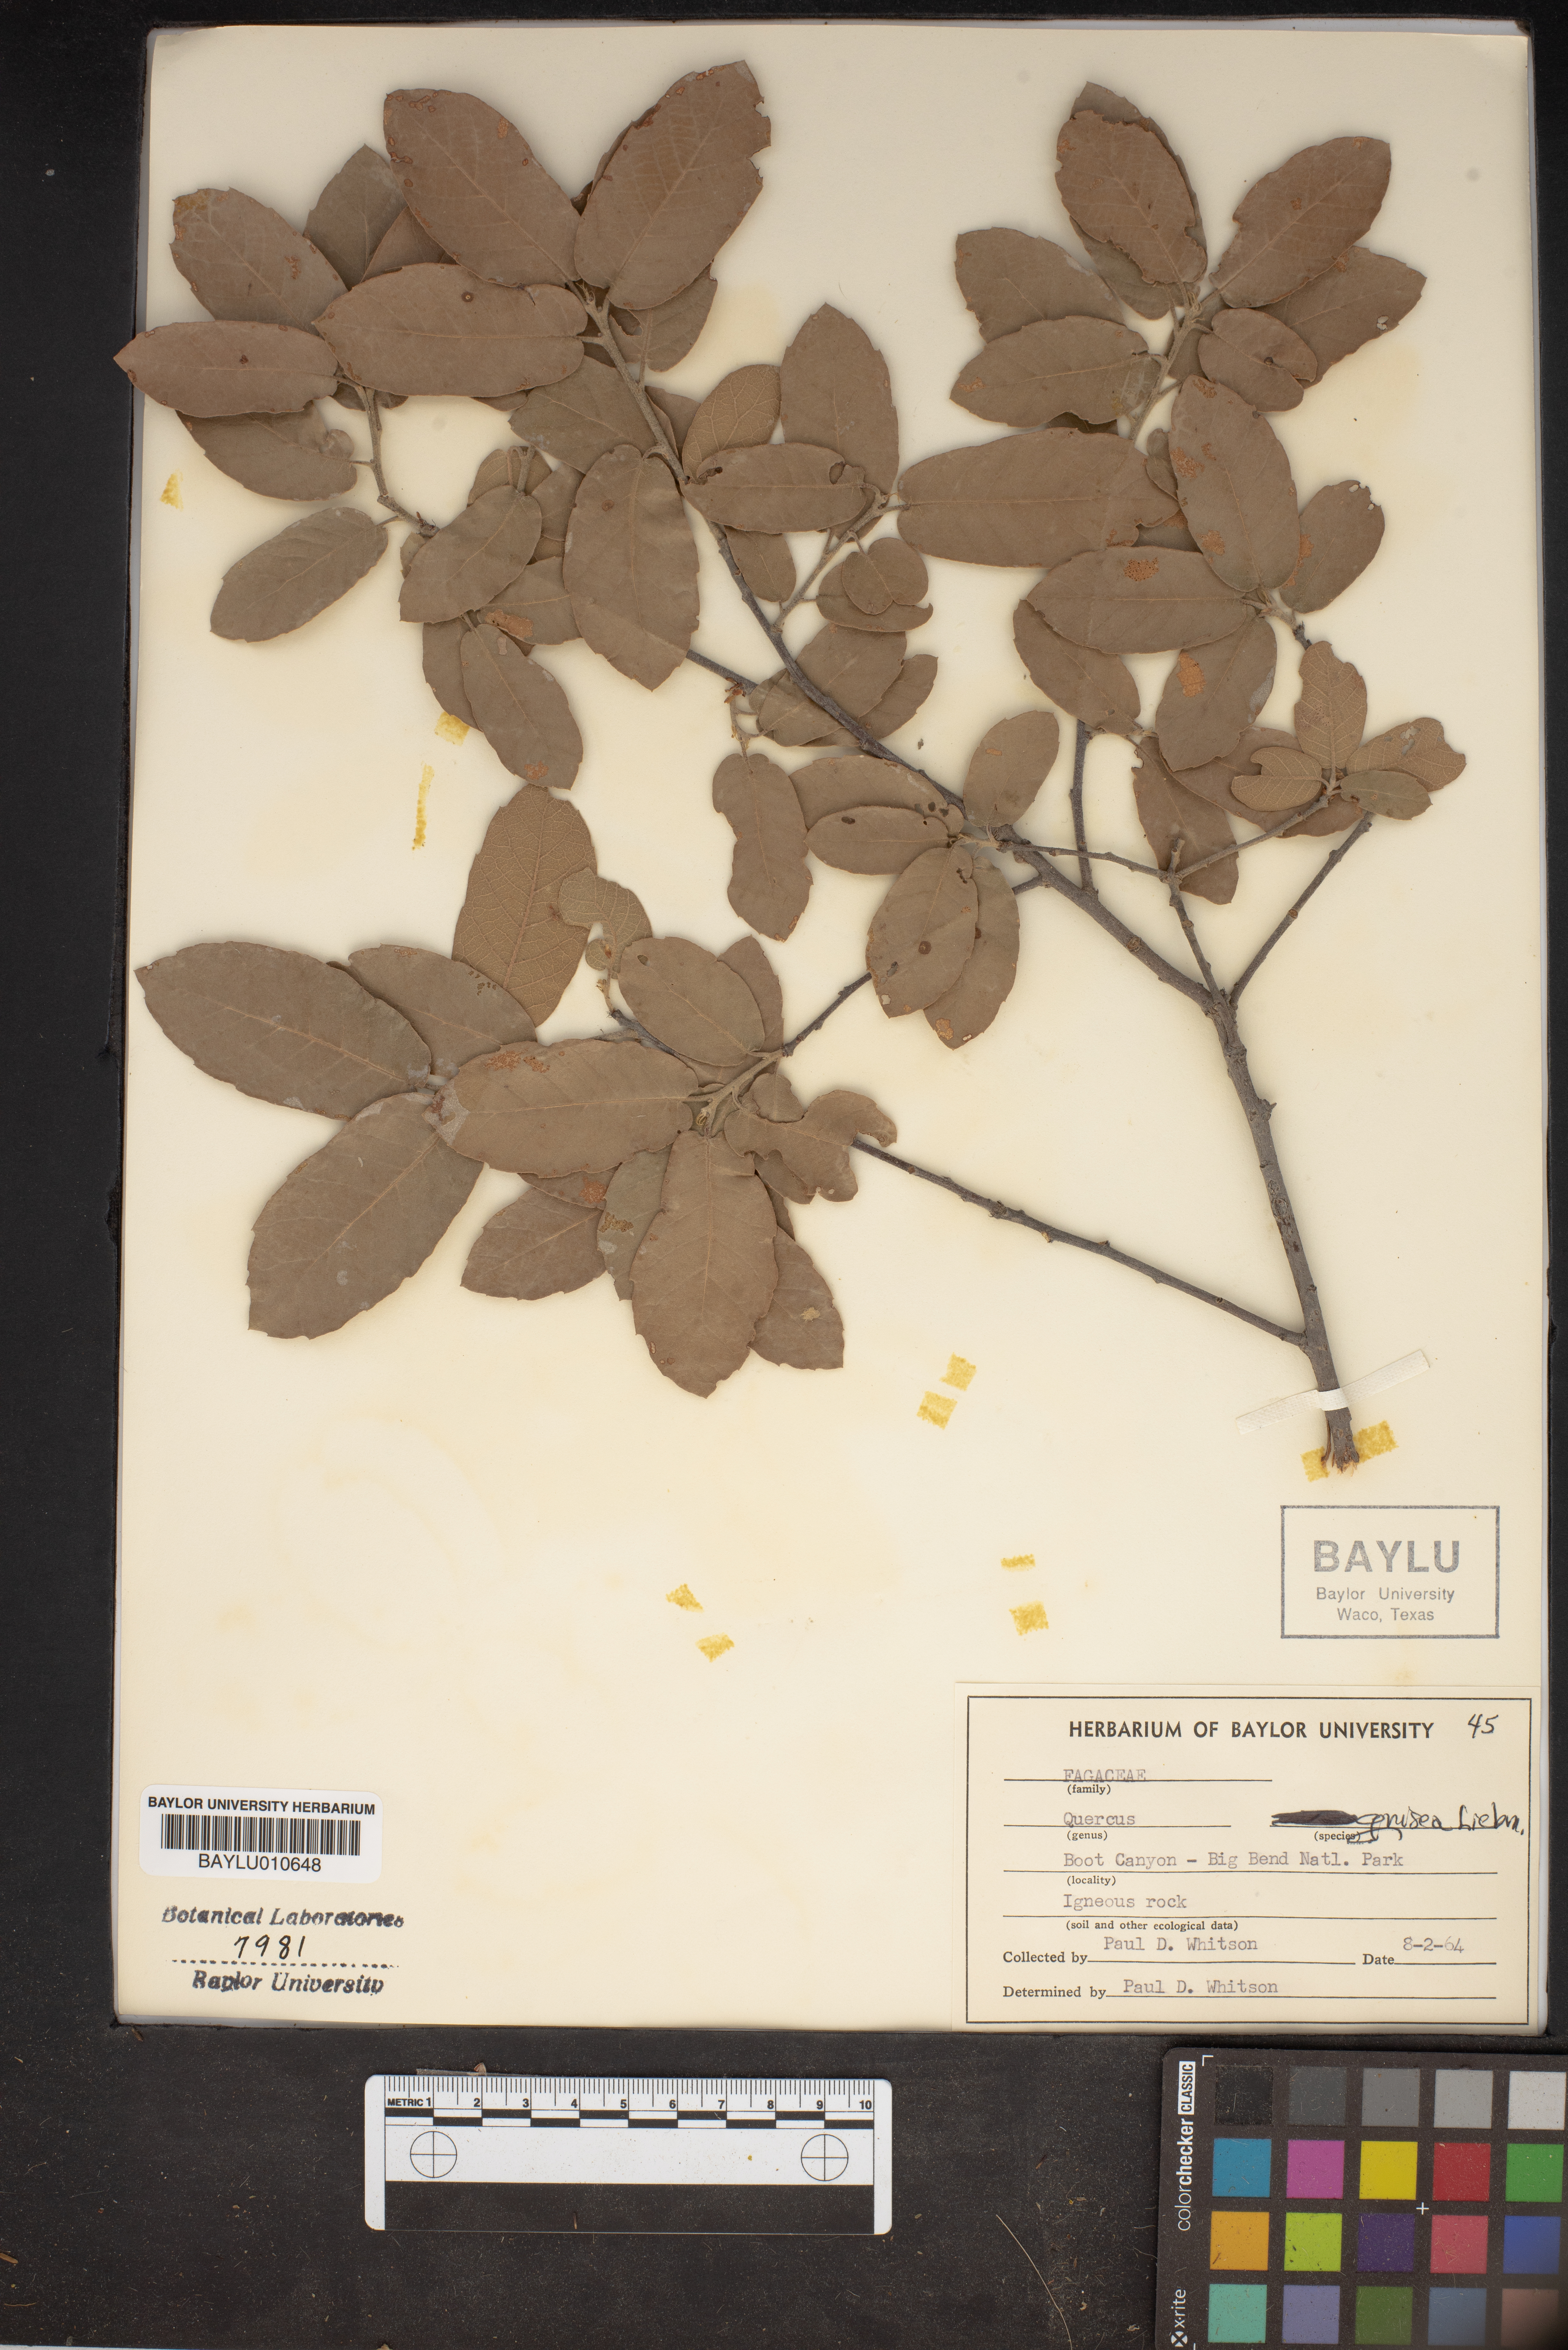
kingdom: Plantae
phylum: Tracheophyta
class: Magnoliopsida
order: Fagales
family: Fagaceae
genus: Quercus
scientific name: Quercus spinosa
